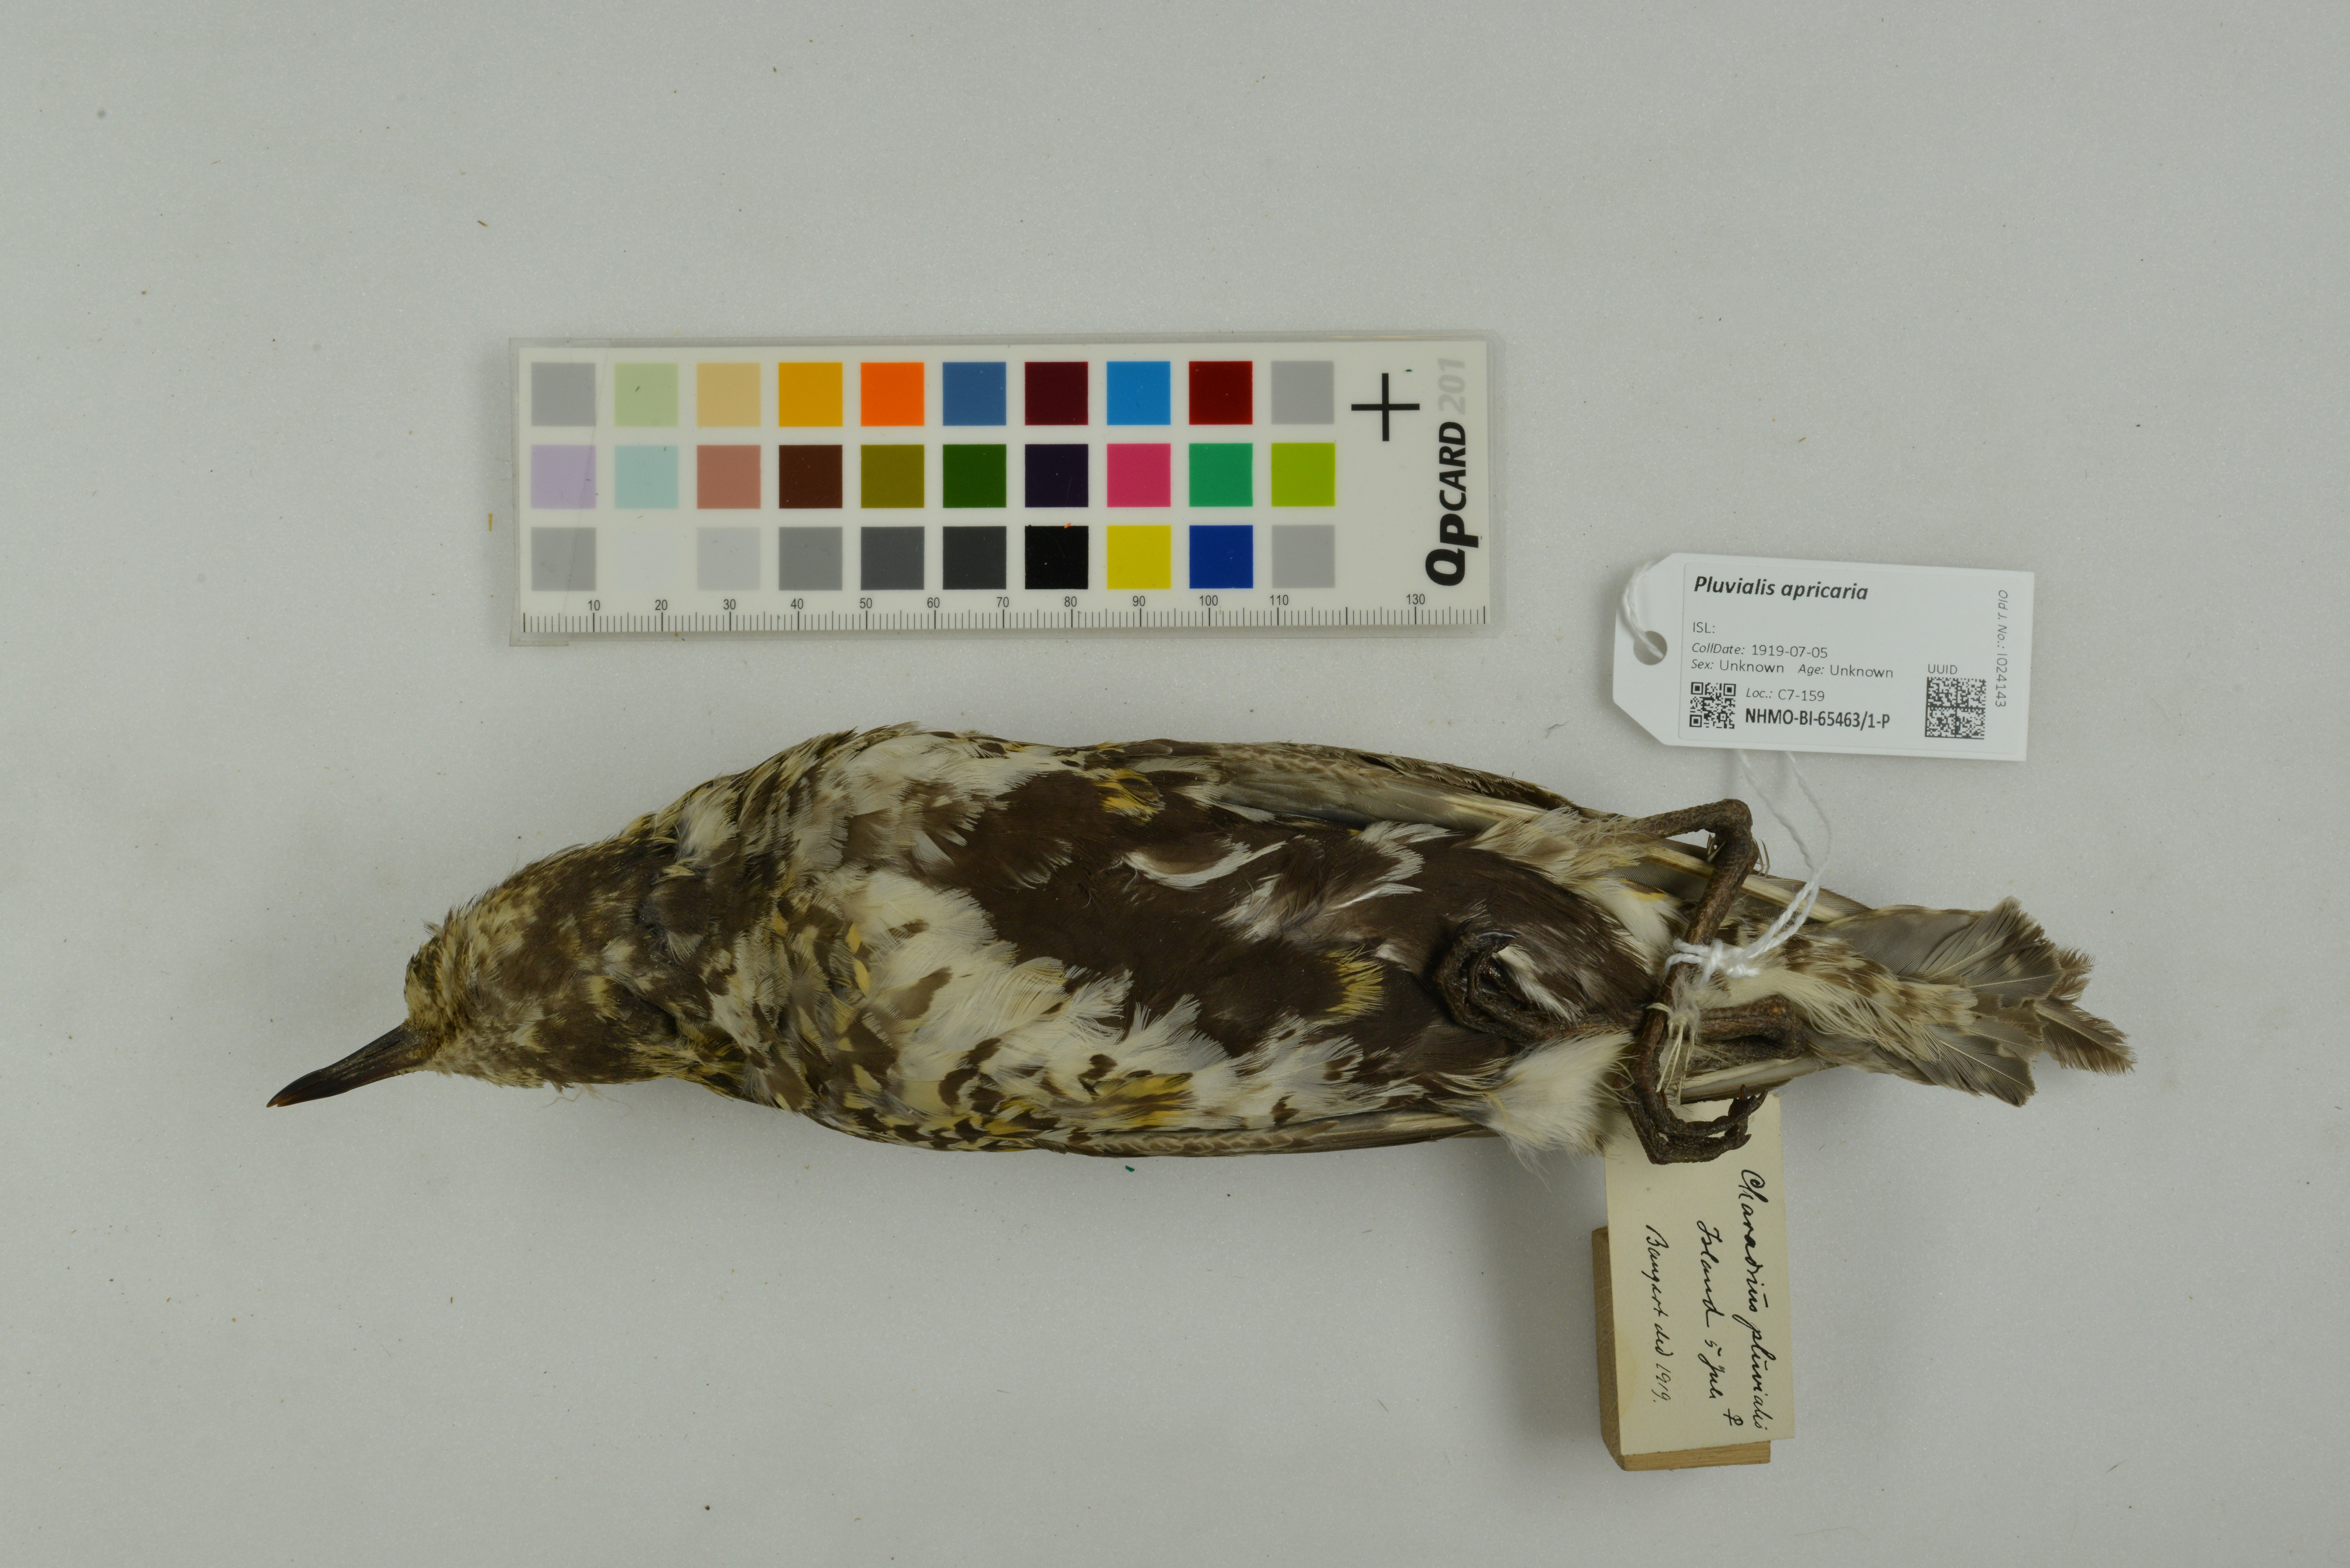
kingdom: Animalia
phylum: Chordata
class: Aves
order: Charadriiformes
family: Charadriidae
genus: Pluvialis
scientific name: Pluvialis apricaria
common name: European golden plover
